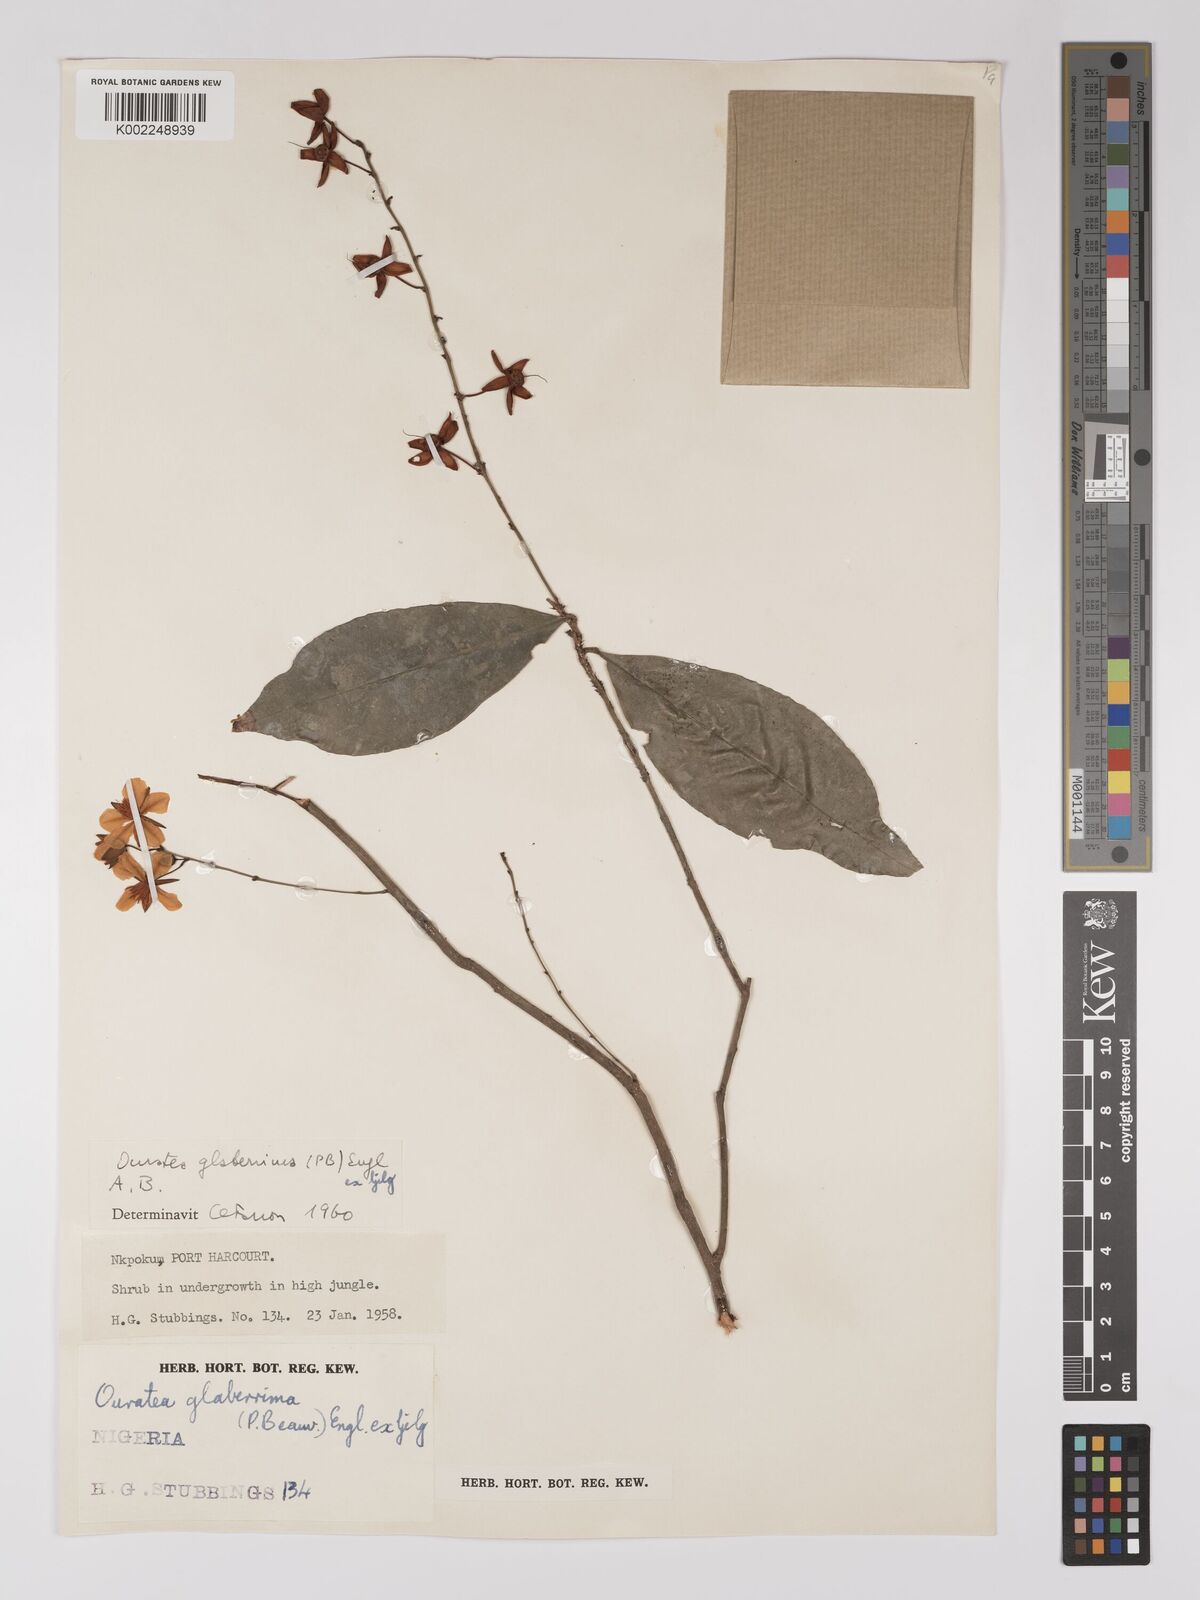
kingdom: Plantae
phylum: Tracheophyta
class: Magnoliopsida
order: Malpighiales
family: Ochnaceae
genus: Campylospermum
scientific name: Campylospermum glaberrimum
